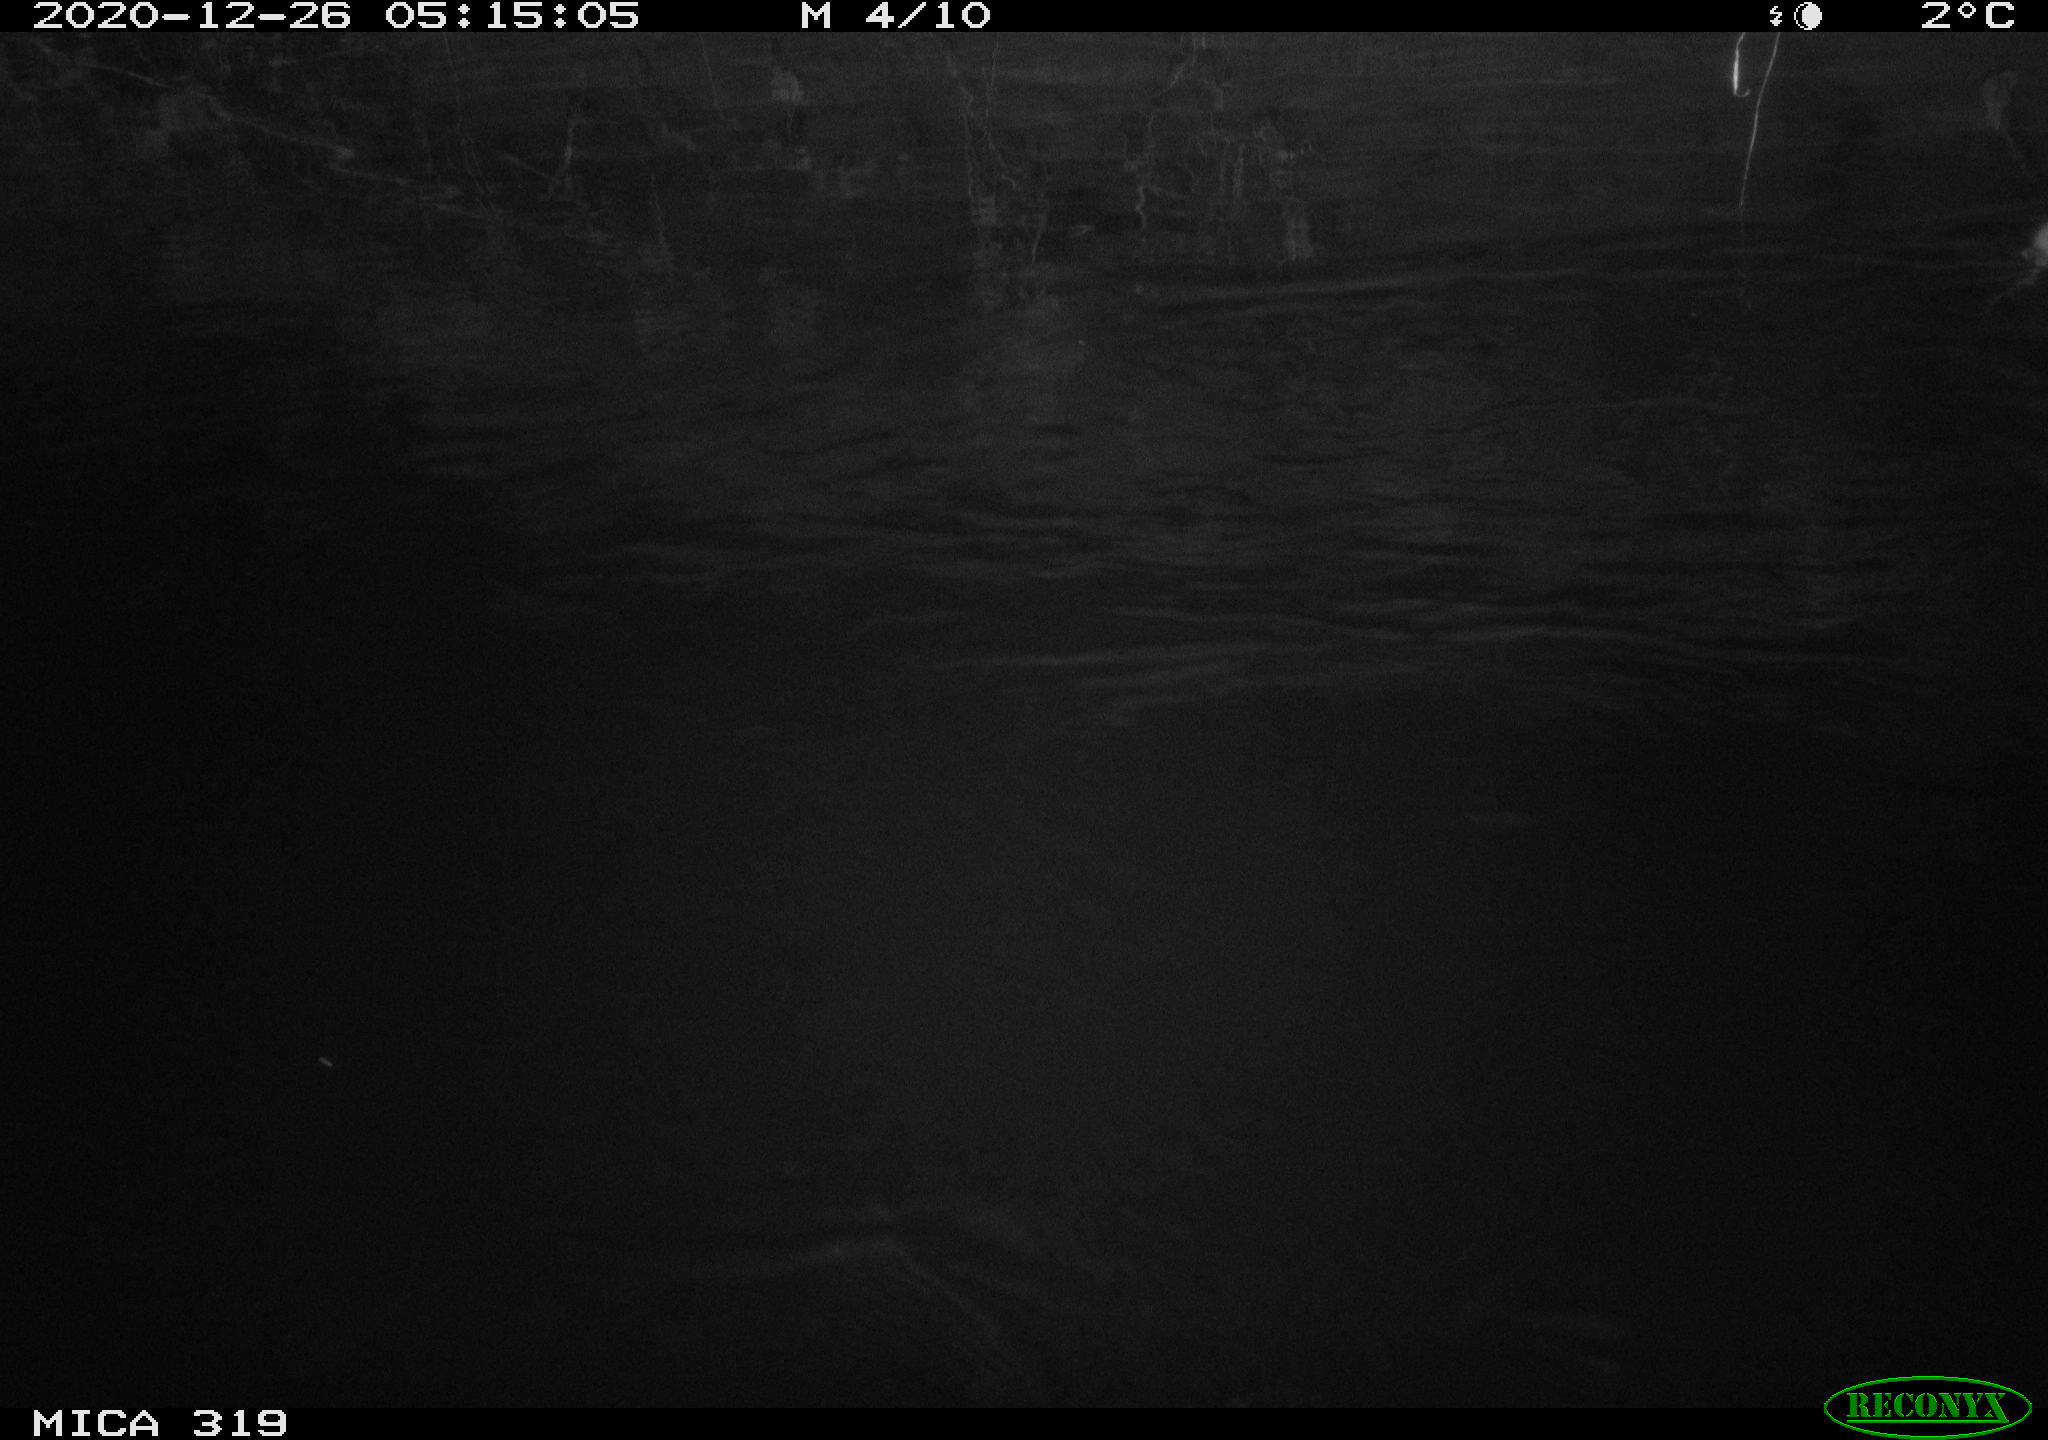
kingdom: Animalia
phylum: Chordata
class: Mammalia
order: Rodentia
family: Muridae
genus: Rattus
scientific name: Rattus norvegicus
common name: Brown rat
